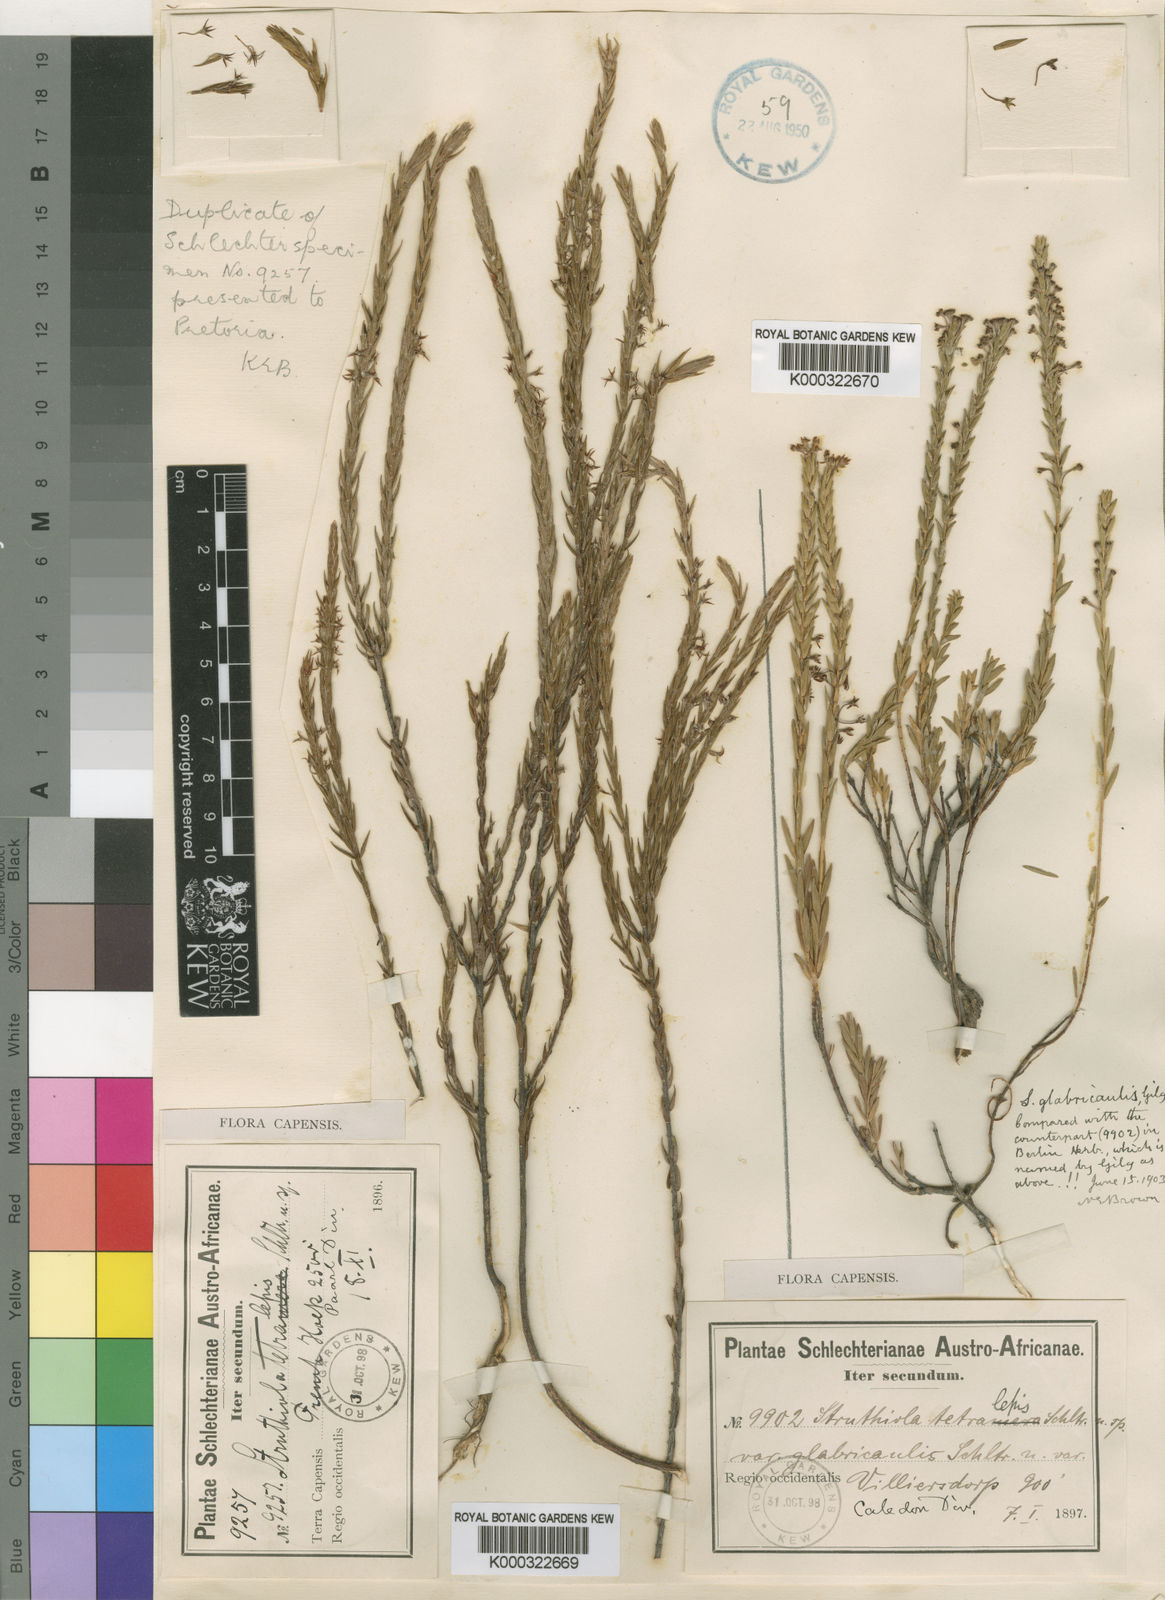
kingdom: Plantae
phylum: Tracheophyta
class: Magnoliopsida
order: Malvales
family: Thymelaeaceae
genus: Struthiola
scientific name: Struthiola tetralepis
